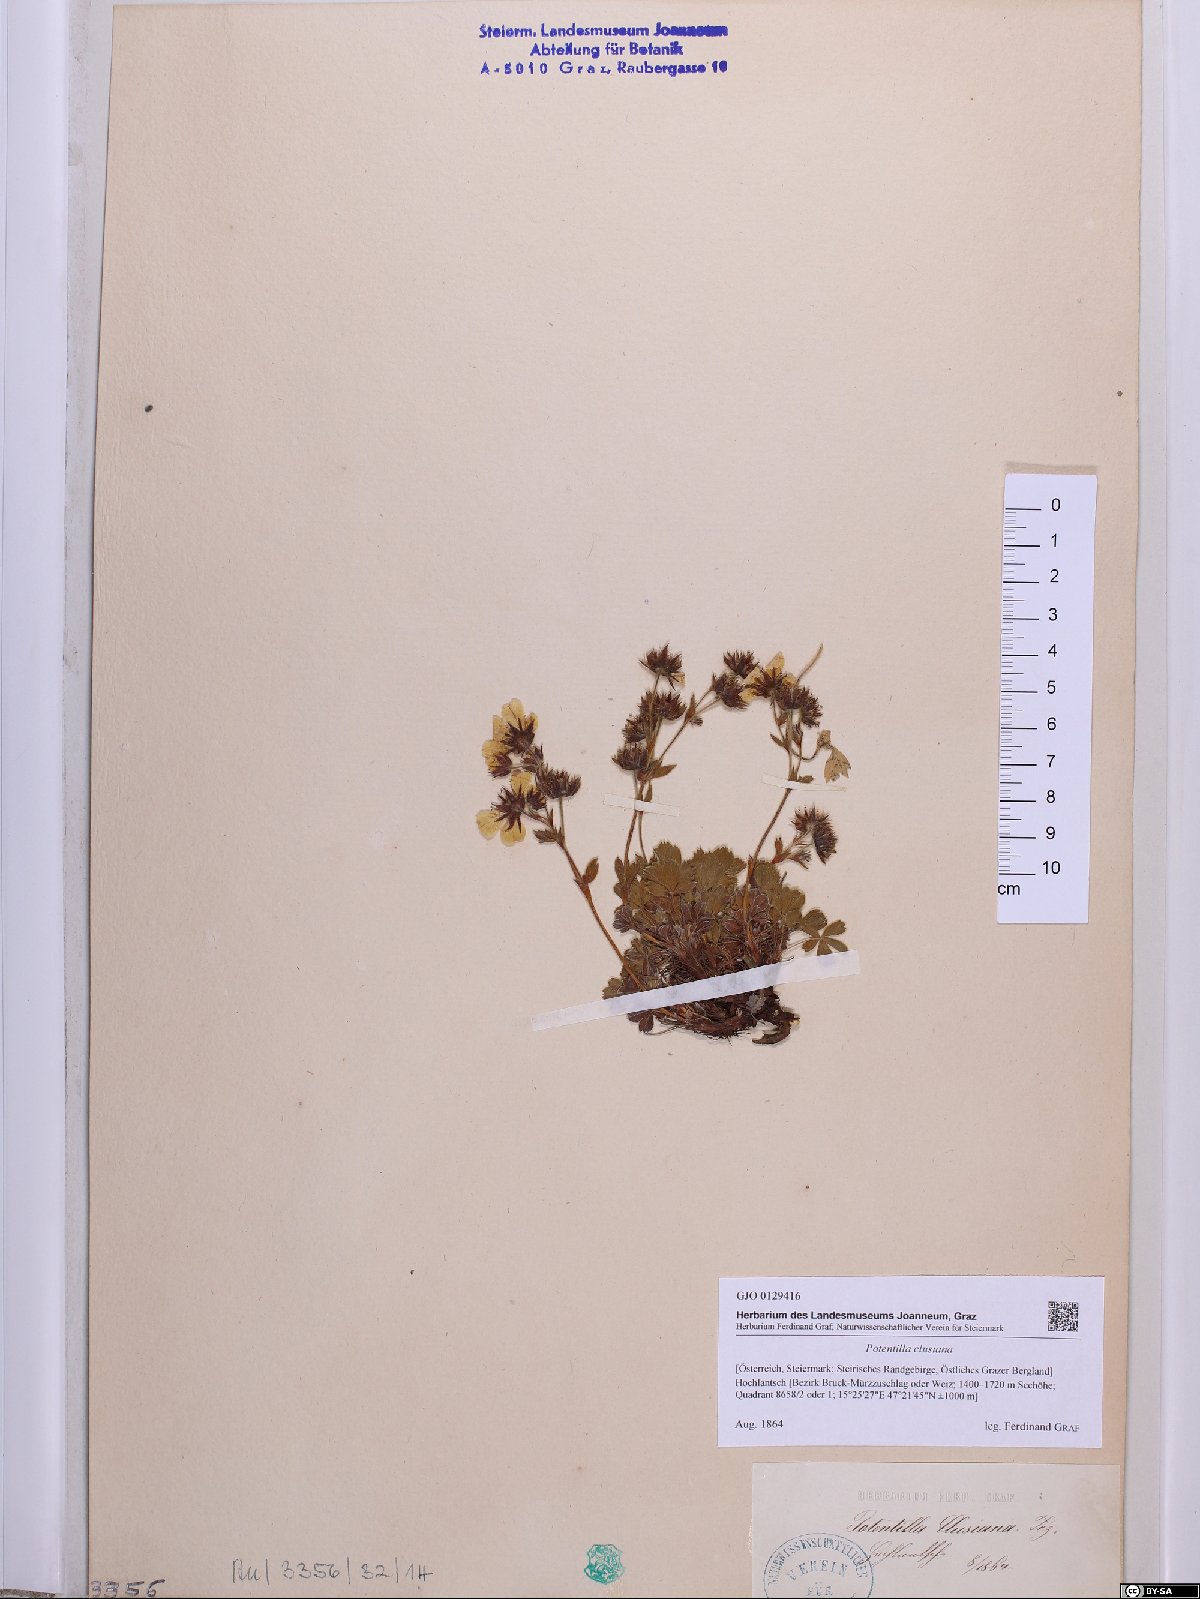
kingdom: Plantae
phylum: Tracheophyta
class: Magnoliopsida
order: Rosales
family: Rosaceae
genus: Potentilla
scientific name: Potentilla clusiana
